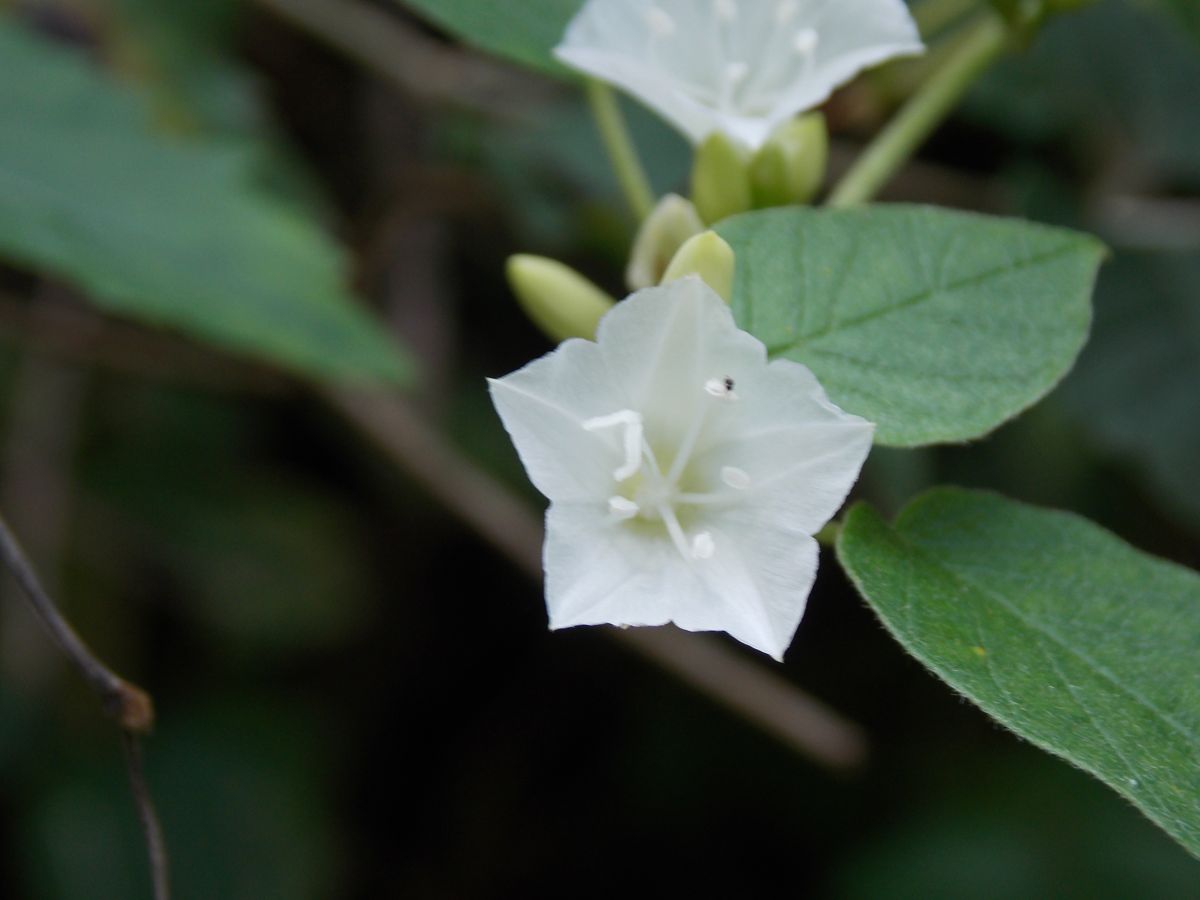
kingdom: Plantae
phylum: Tracheophyta
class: Magnoliopsida
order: Solanales
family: Convolvulaceae
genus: Jacquemontia
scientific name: Jacquemontia nodiflora
